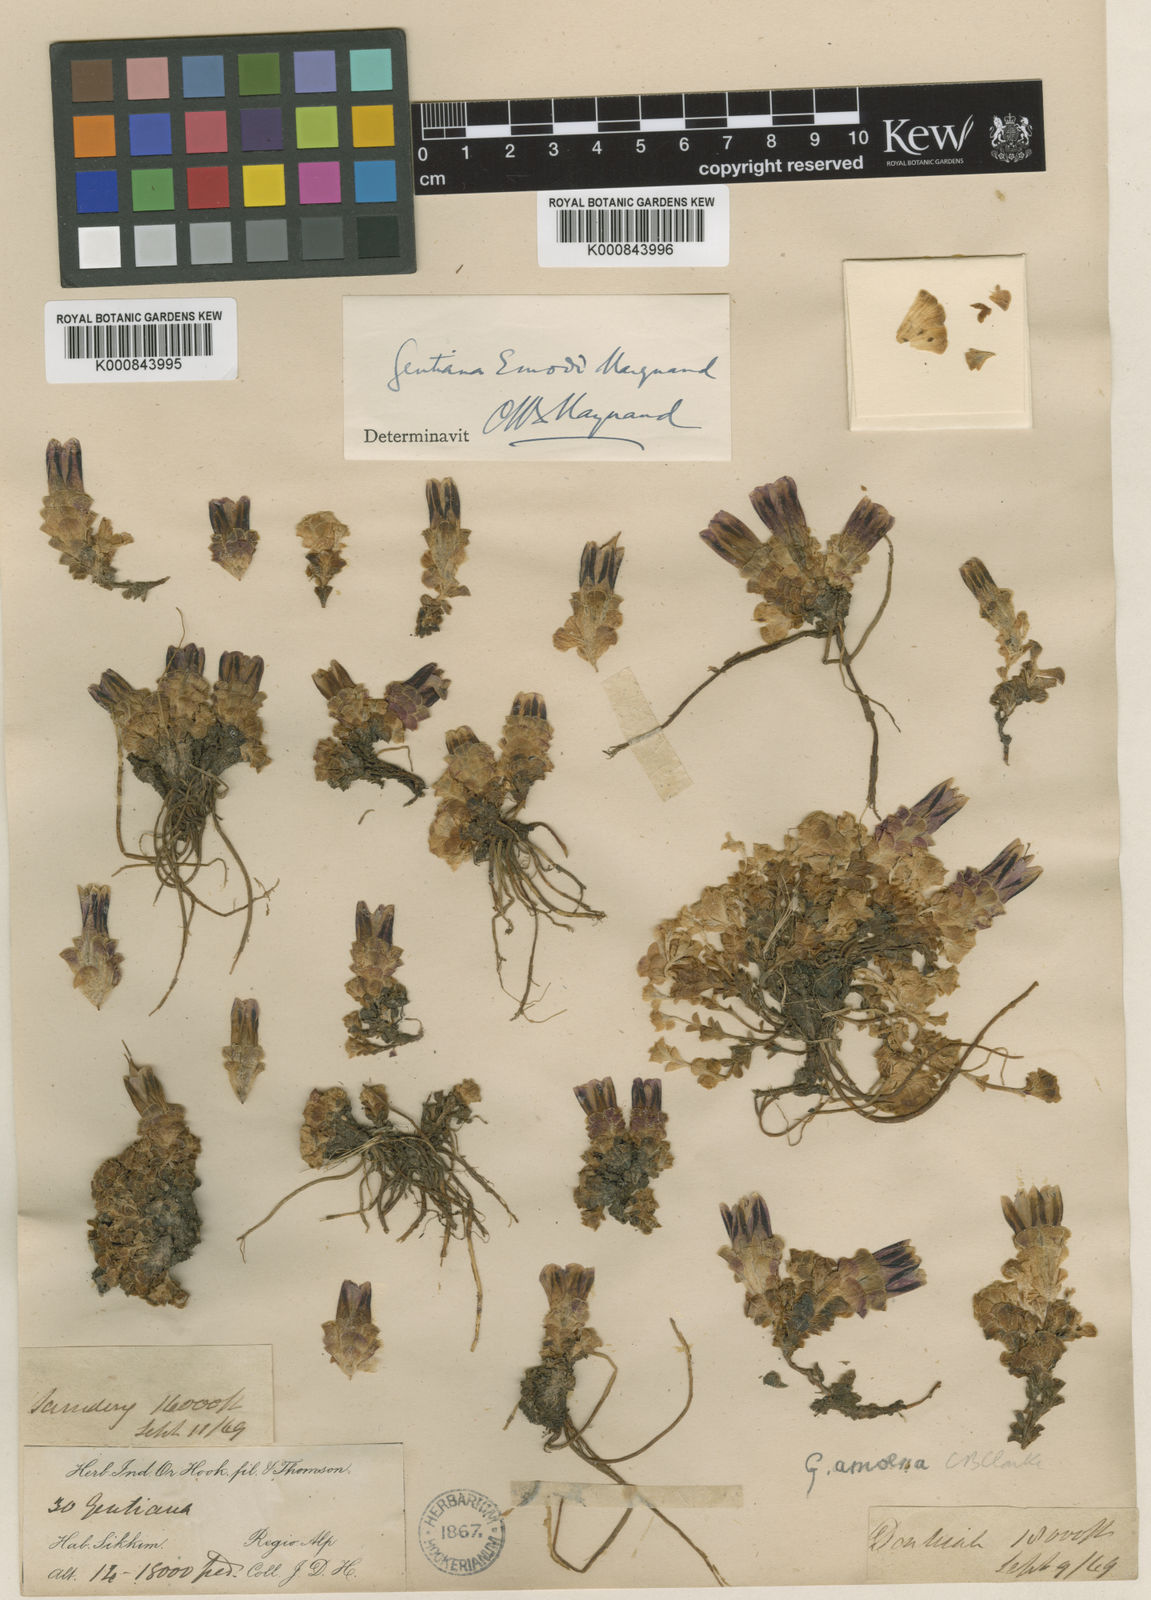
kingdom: Plantae
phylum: Tracheophyta
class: Magnoliopsida
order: Gentianales
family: Gentianaceae
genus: Gentiana
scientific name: Gentiana
